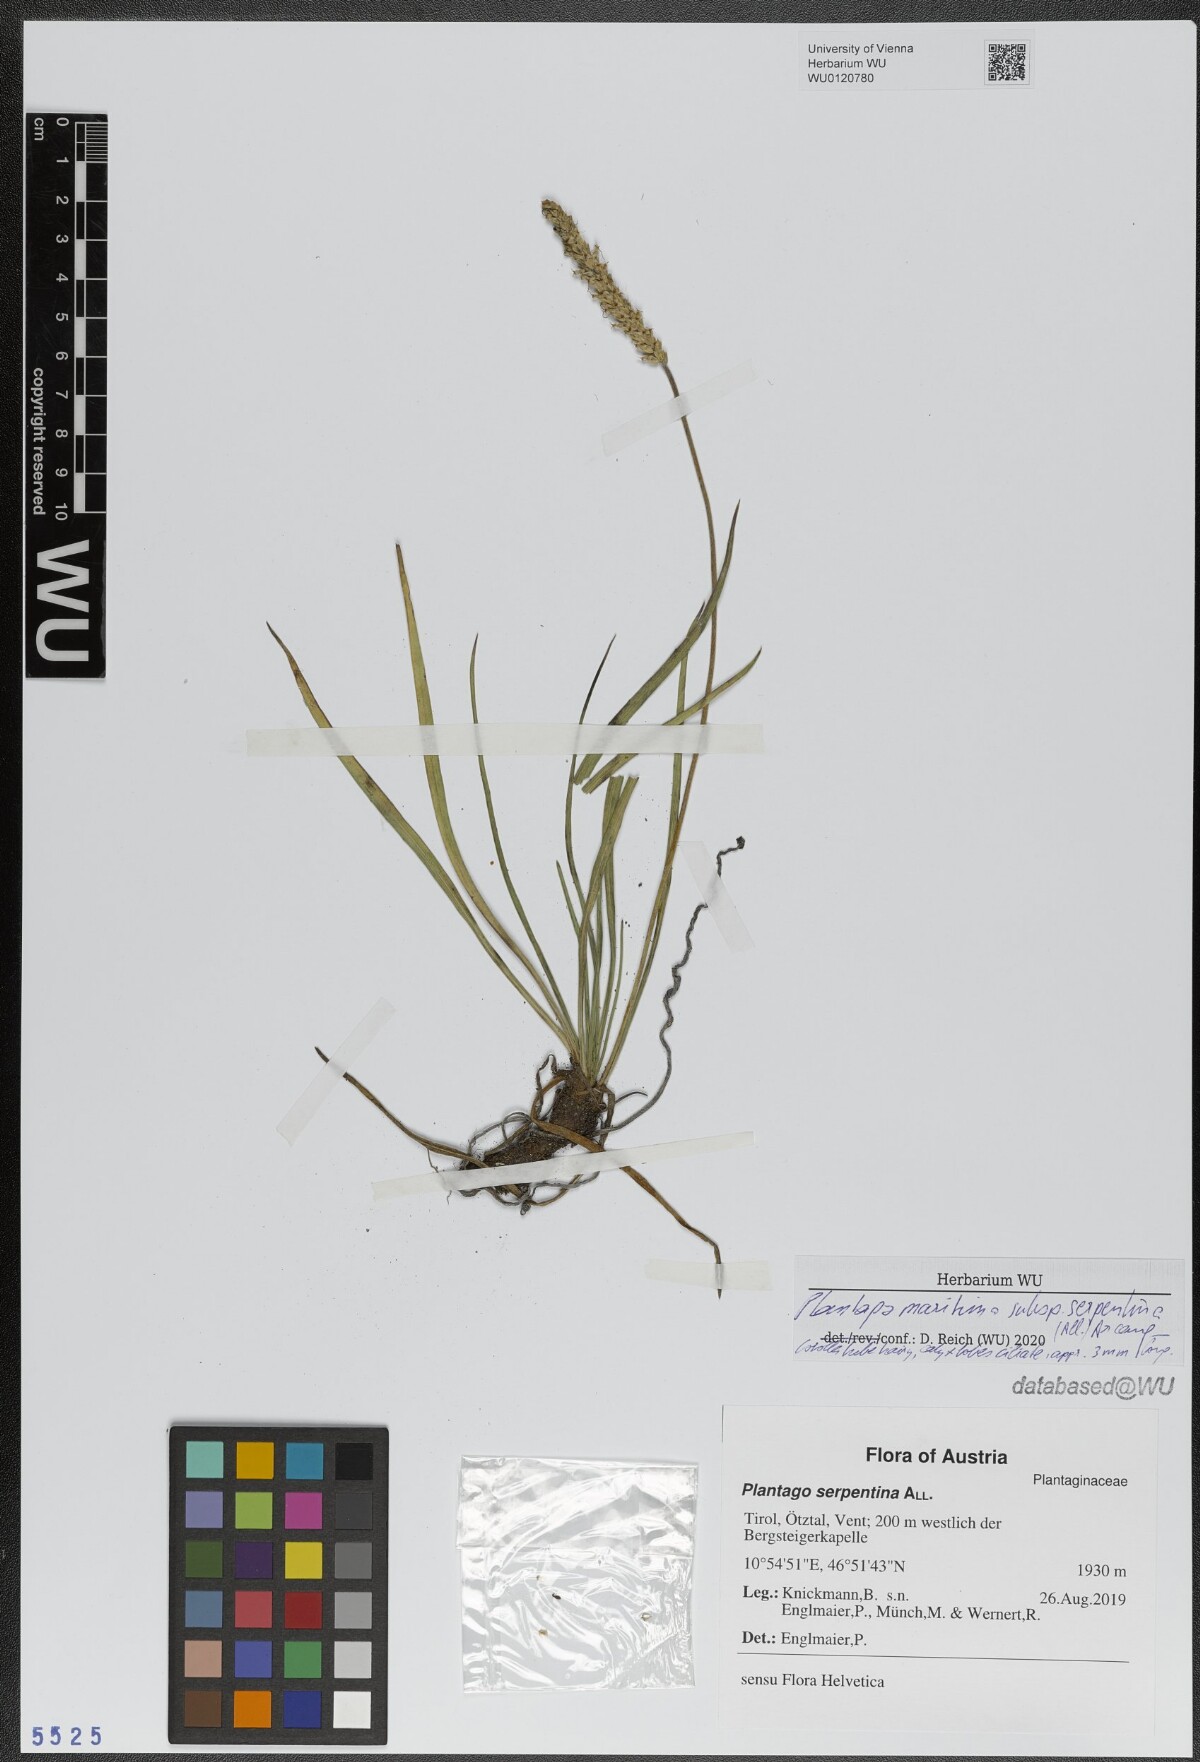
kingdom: Plantae
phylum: Tracheophyta
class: Magnoliopsida
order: Lamiales
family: Plantaginaceae
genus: Plantago
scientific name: Plantago strictissima
